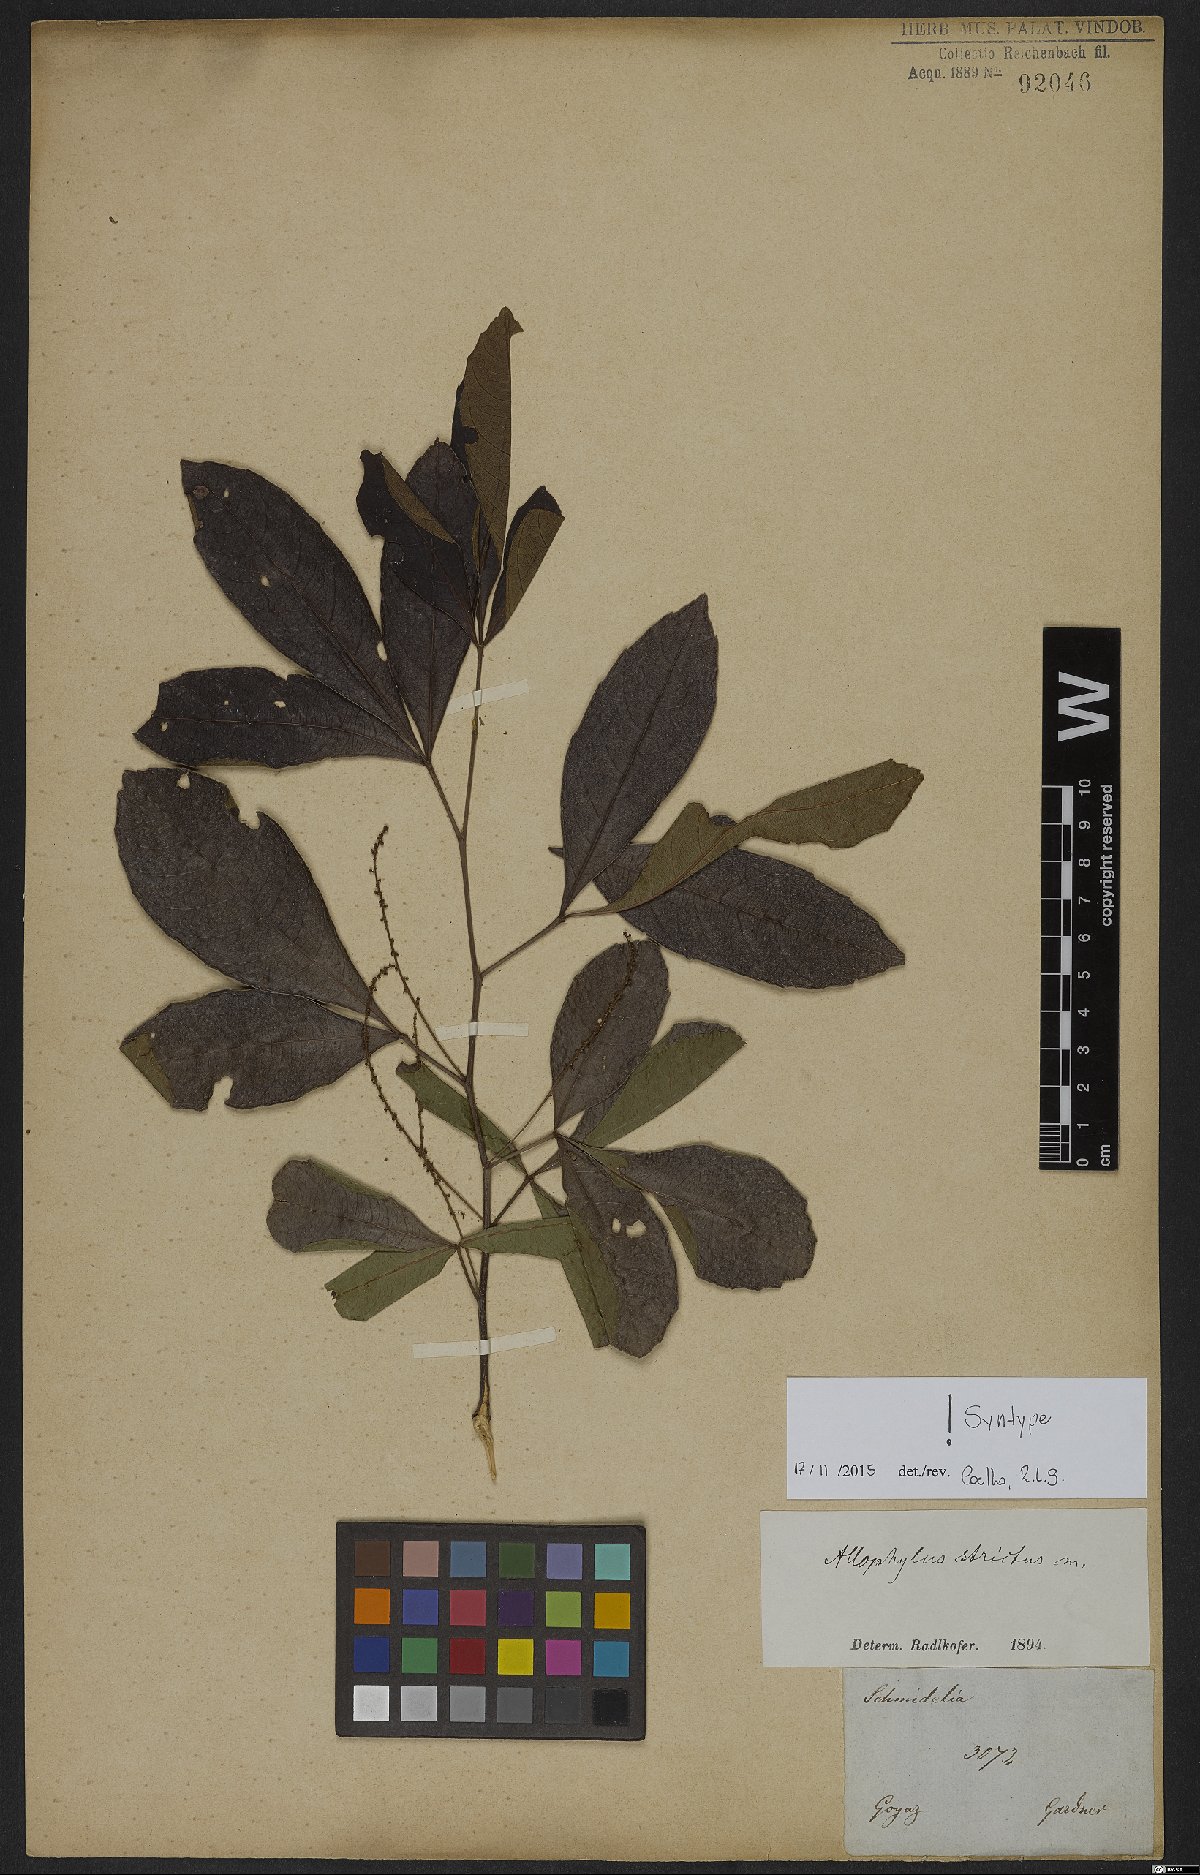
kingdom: Plantae
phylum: Tracheophyta
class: Magnoliopsida
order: Sapindales
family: Sapindaceae
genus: Allophylus
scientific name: Allophylus strictus
